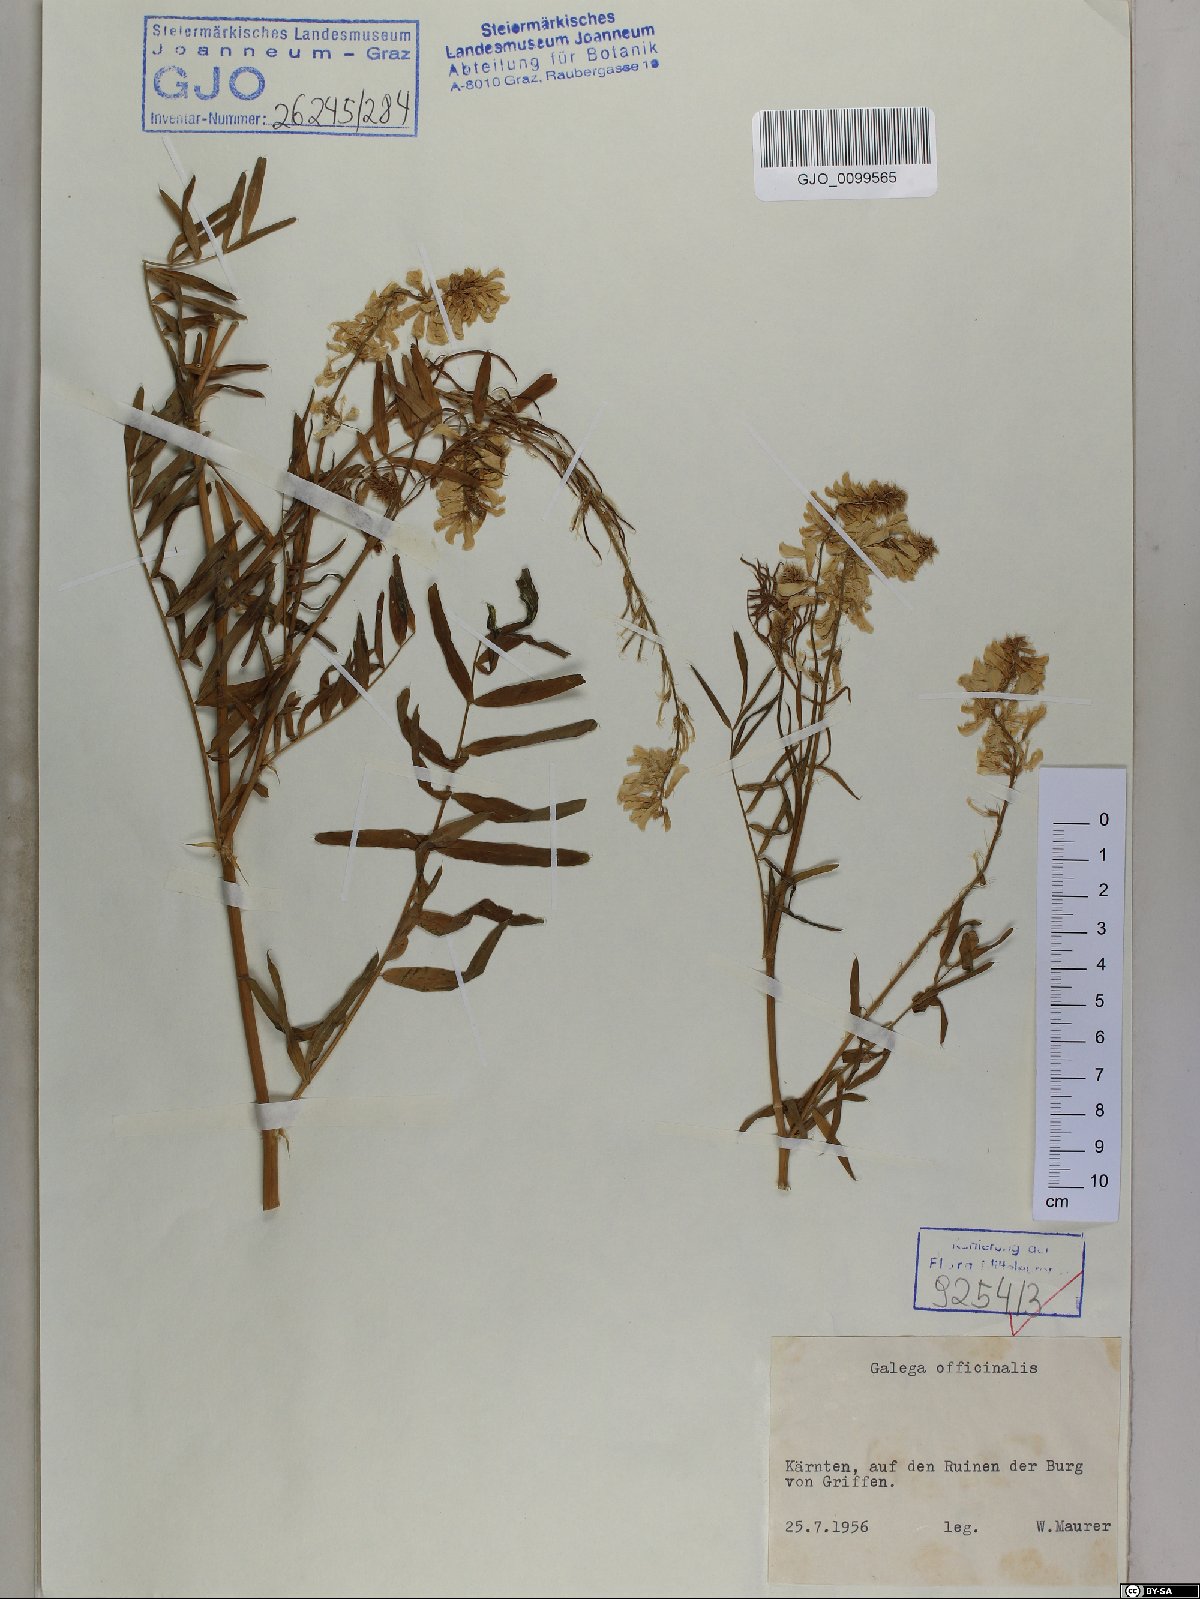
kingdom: Plantae
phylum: Tracheophyta
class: Magnoliopsida
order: Fabales
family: Fabaceae
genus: Galega
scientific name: Galega officinalis
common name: Goat's-rue
